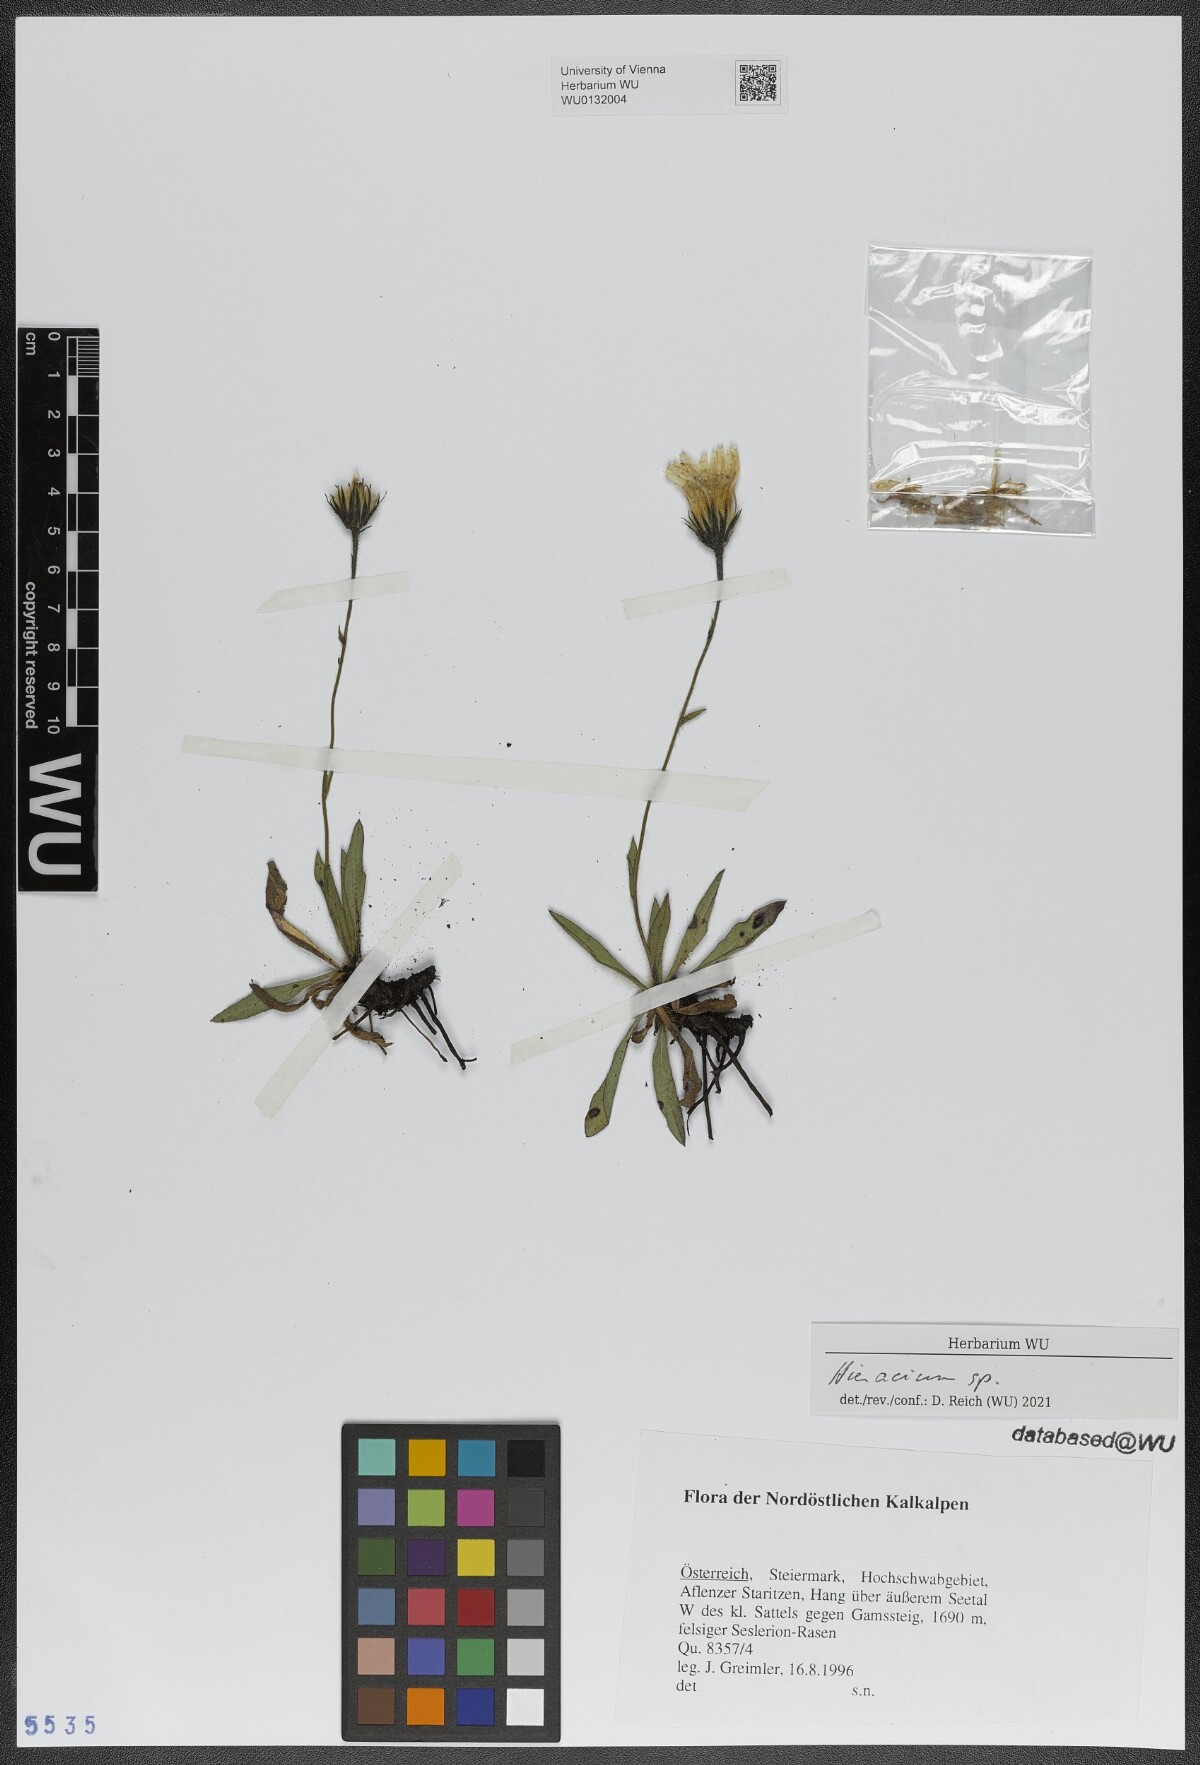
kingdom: Plantae
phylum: Tracheophyta
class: Magnoliopsida
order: Asterales
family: Asteraceae
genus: Hieracium
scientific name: Hieracium
